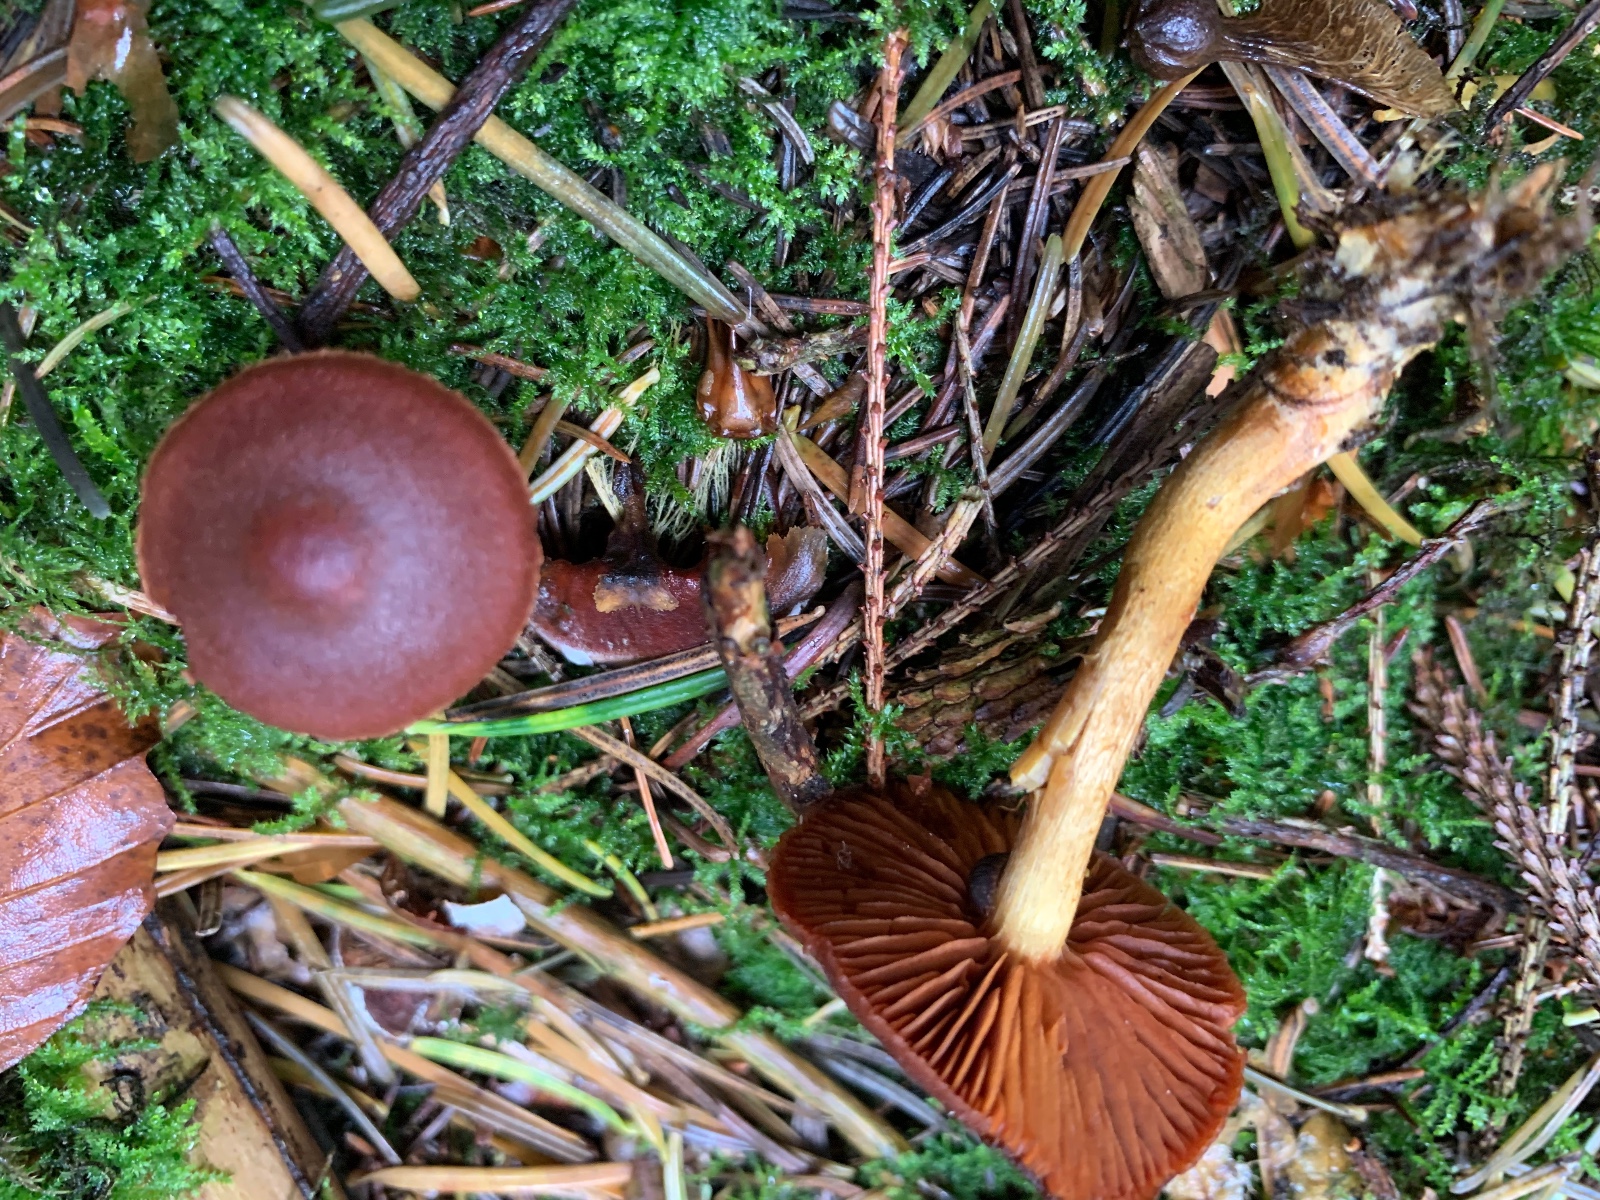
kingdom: Fungi
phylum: Basidiomycota
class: Agaricomycetes
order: Agaricales
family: Cortinariaceae
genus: Cortinarius
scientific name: Cortinarius
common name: cinnoberbladet slørhat
